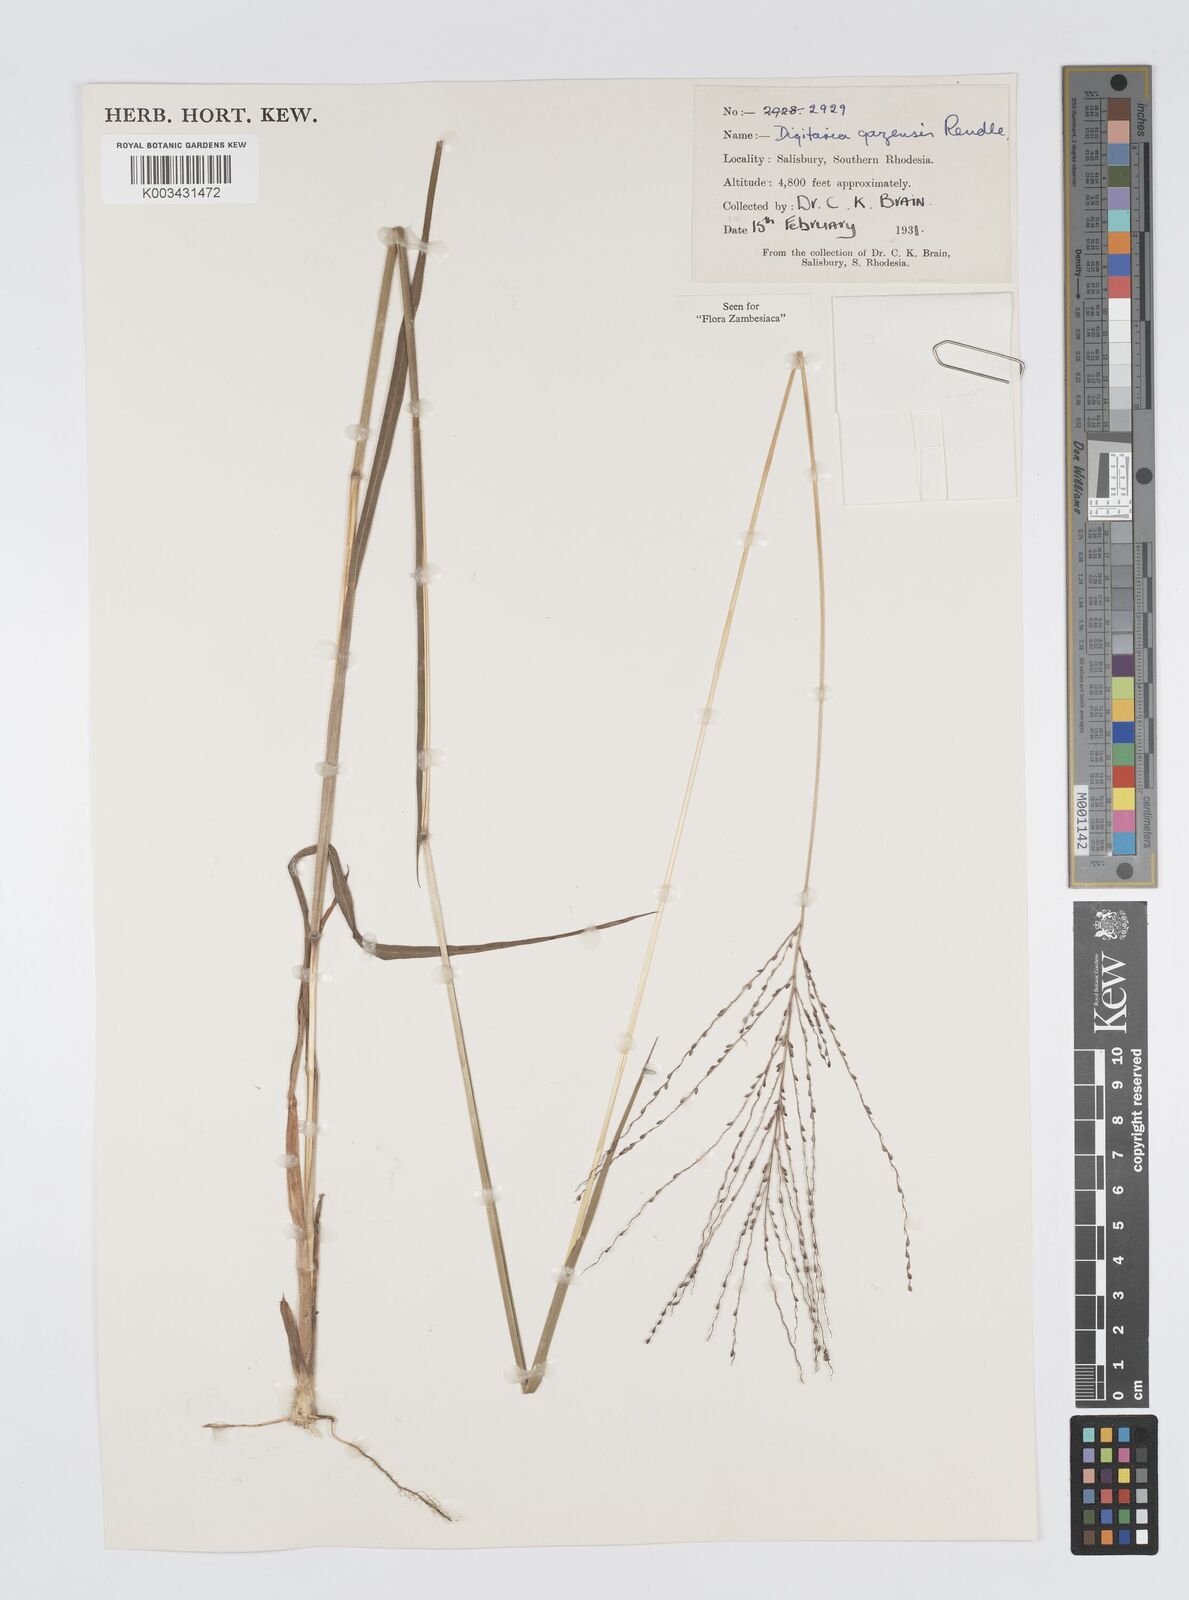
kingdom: Plantae
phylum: Tracheophyta
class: Liliopsida
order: Poales
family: Poaceae
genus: Digitaria
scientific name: Digitaria gazensis
